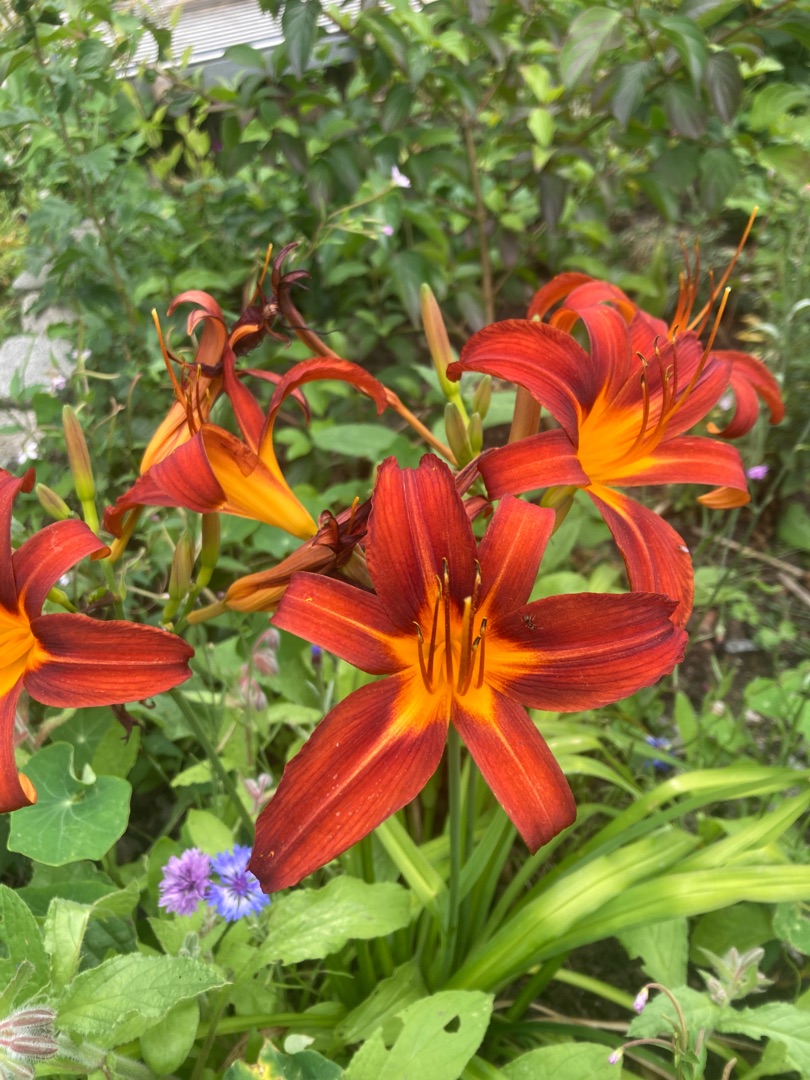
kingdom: Plantae
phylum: Tracheophyta
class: Liliopsida
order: Asparagales
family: Asphodelaceae
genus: Hemerocallis
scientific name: Hemerocallis fulva
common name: Rødgul daglilje
